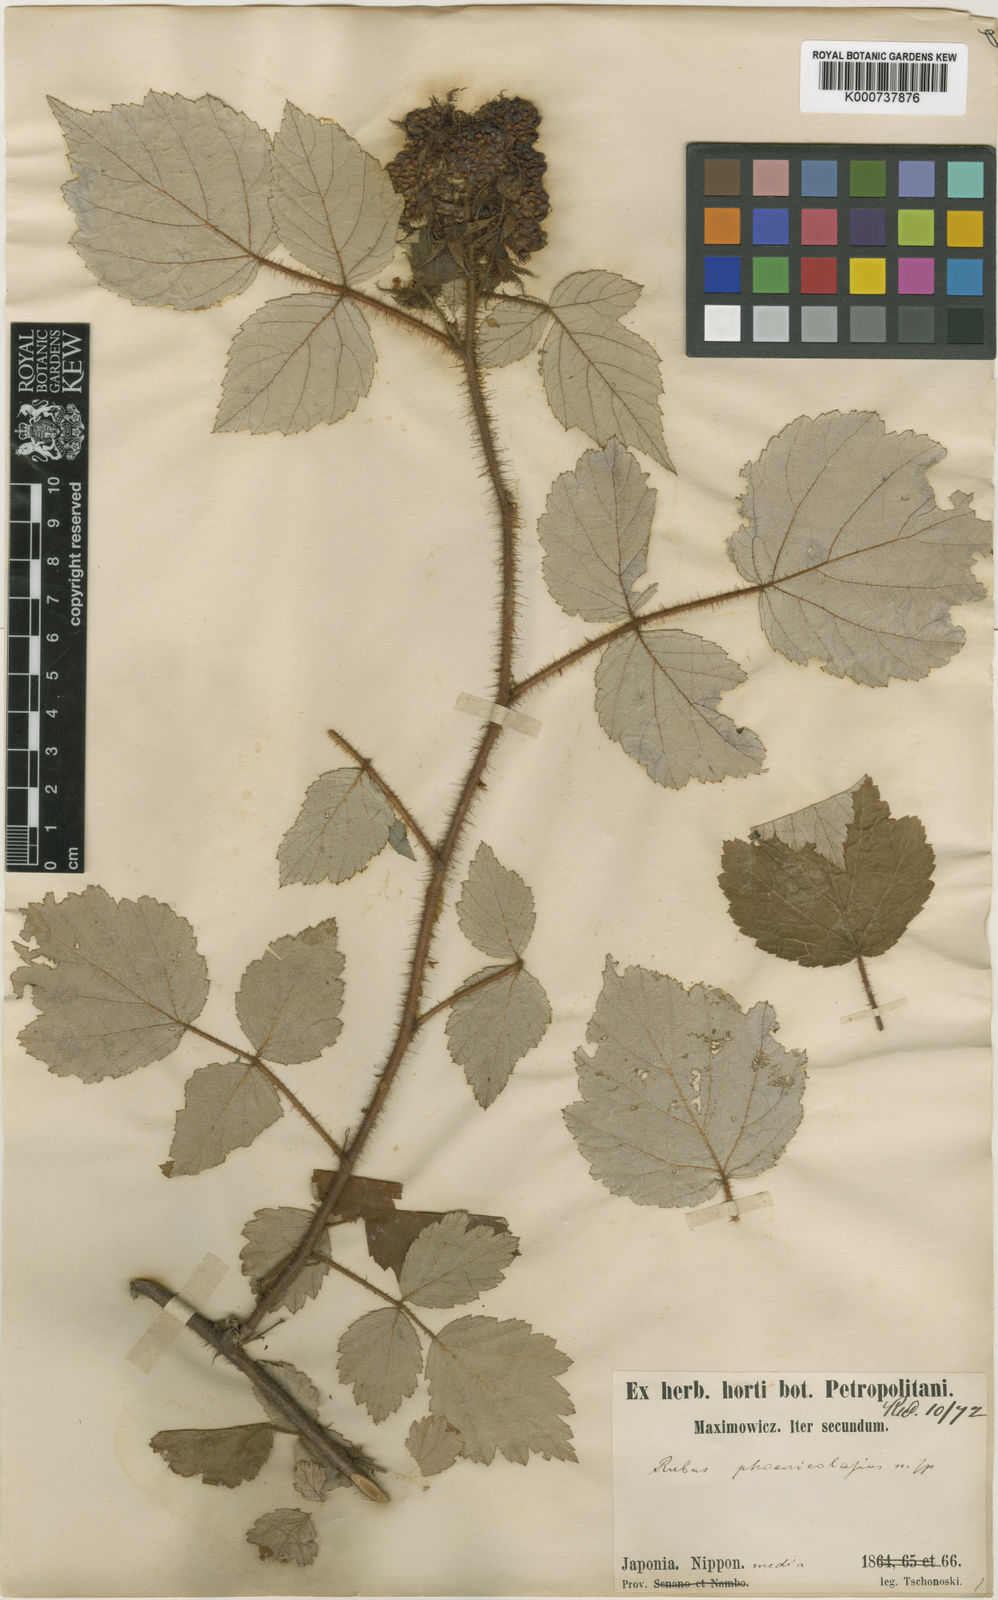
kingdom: Plantae
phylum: Tracheophyta
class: Magnoliopsida
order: Rosales
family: Rosaceae
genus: Rubus
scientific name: Rubus phoenicolasius
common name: Japanese wineberry
